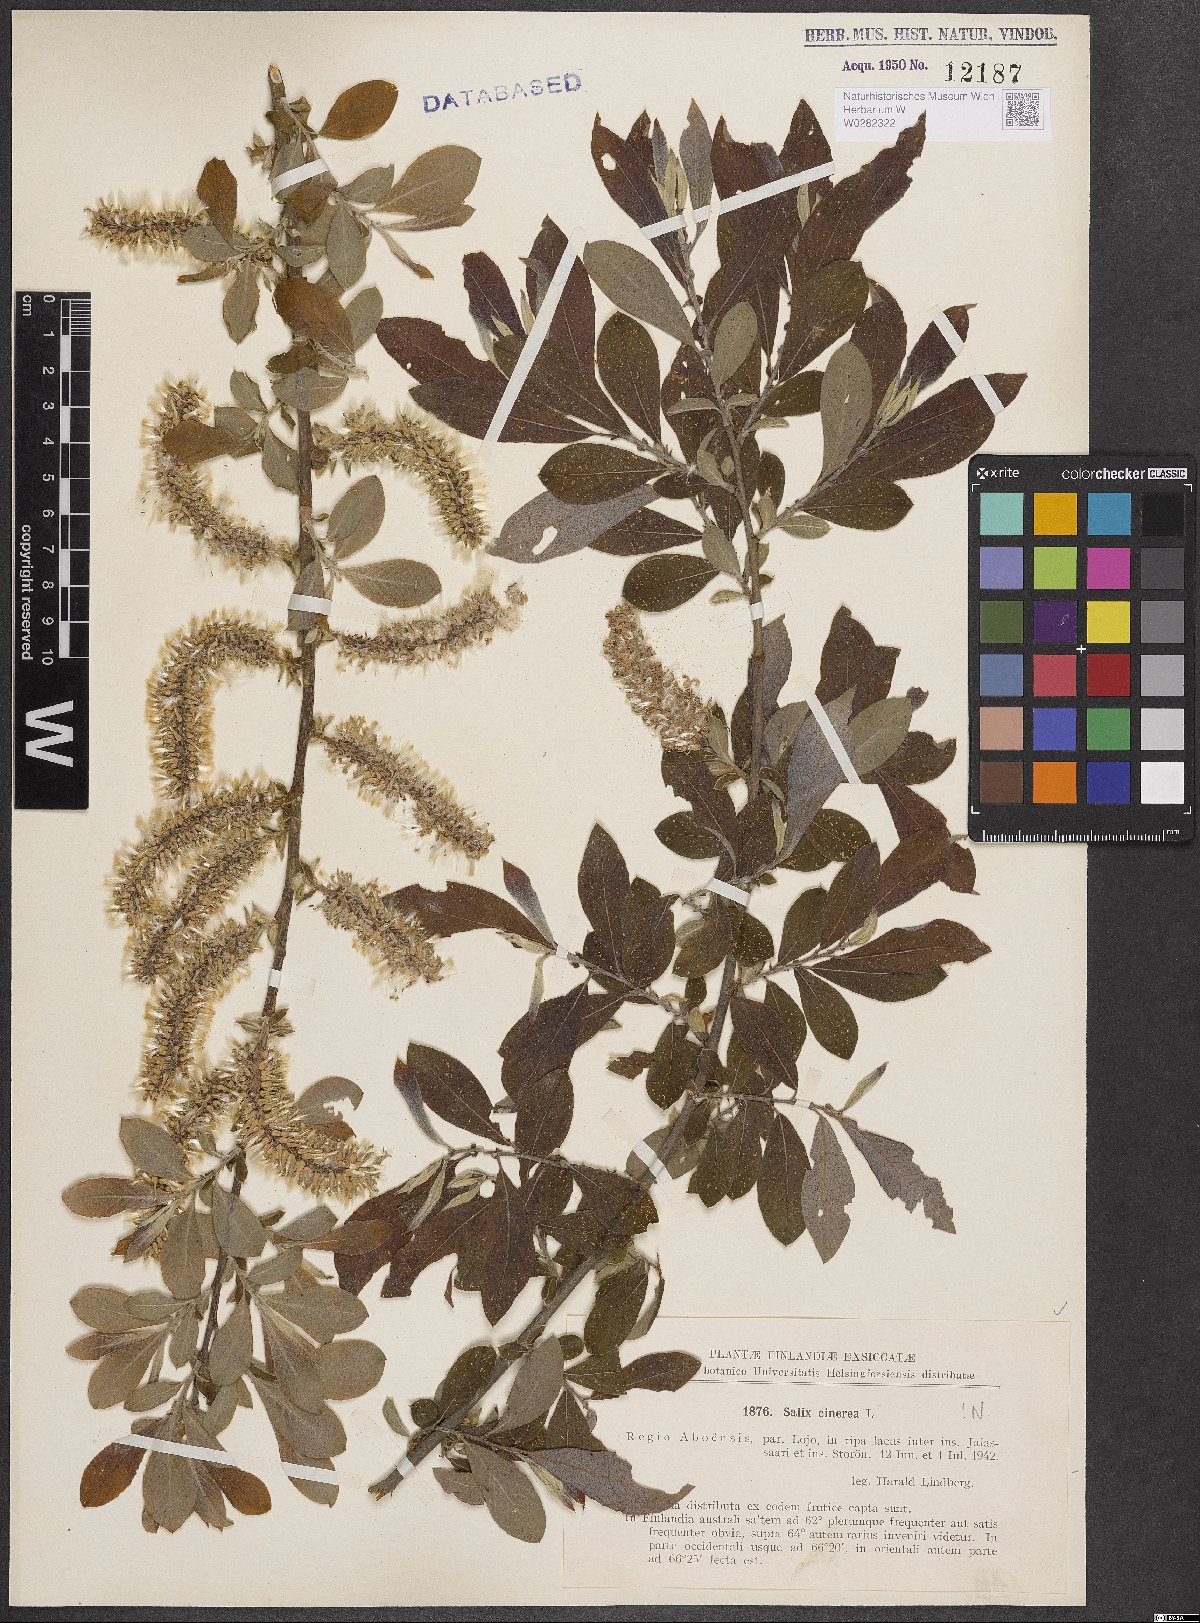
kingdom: Plantae
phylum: Tracheophyta
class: Magnoliopsida
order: Malpighiales
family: Salicaceae
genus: Salix
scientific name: Salix cinerea
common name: Common sallow
